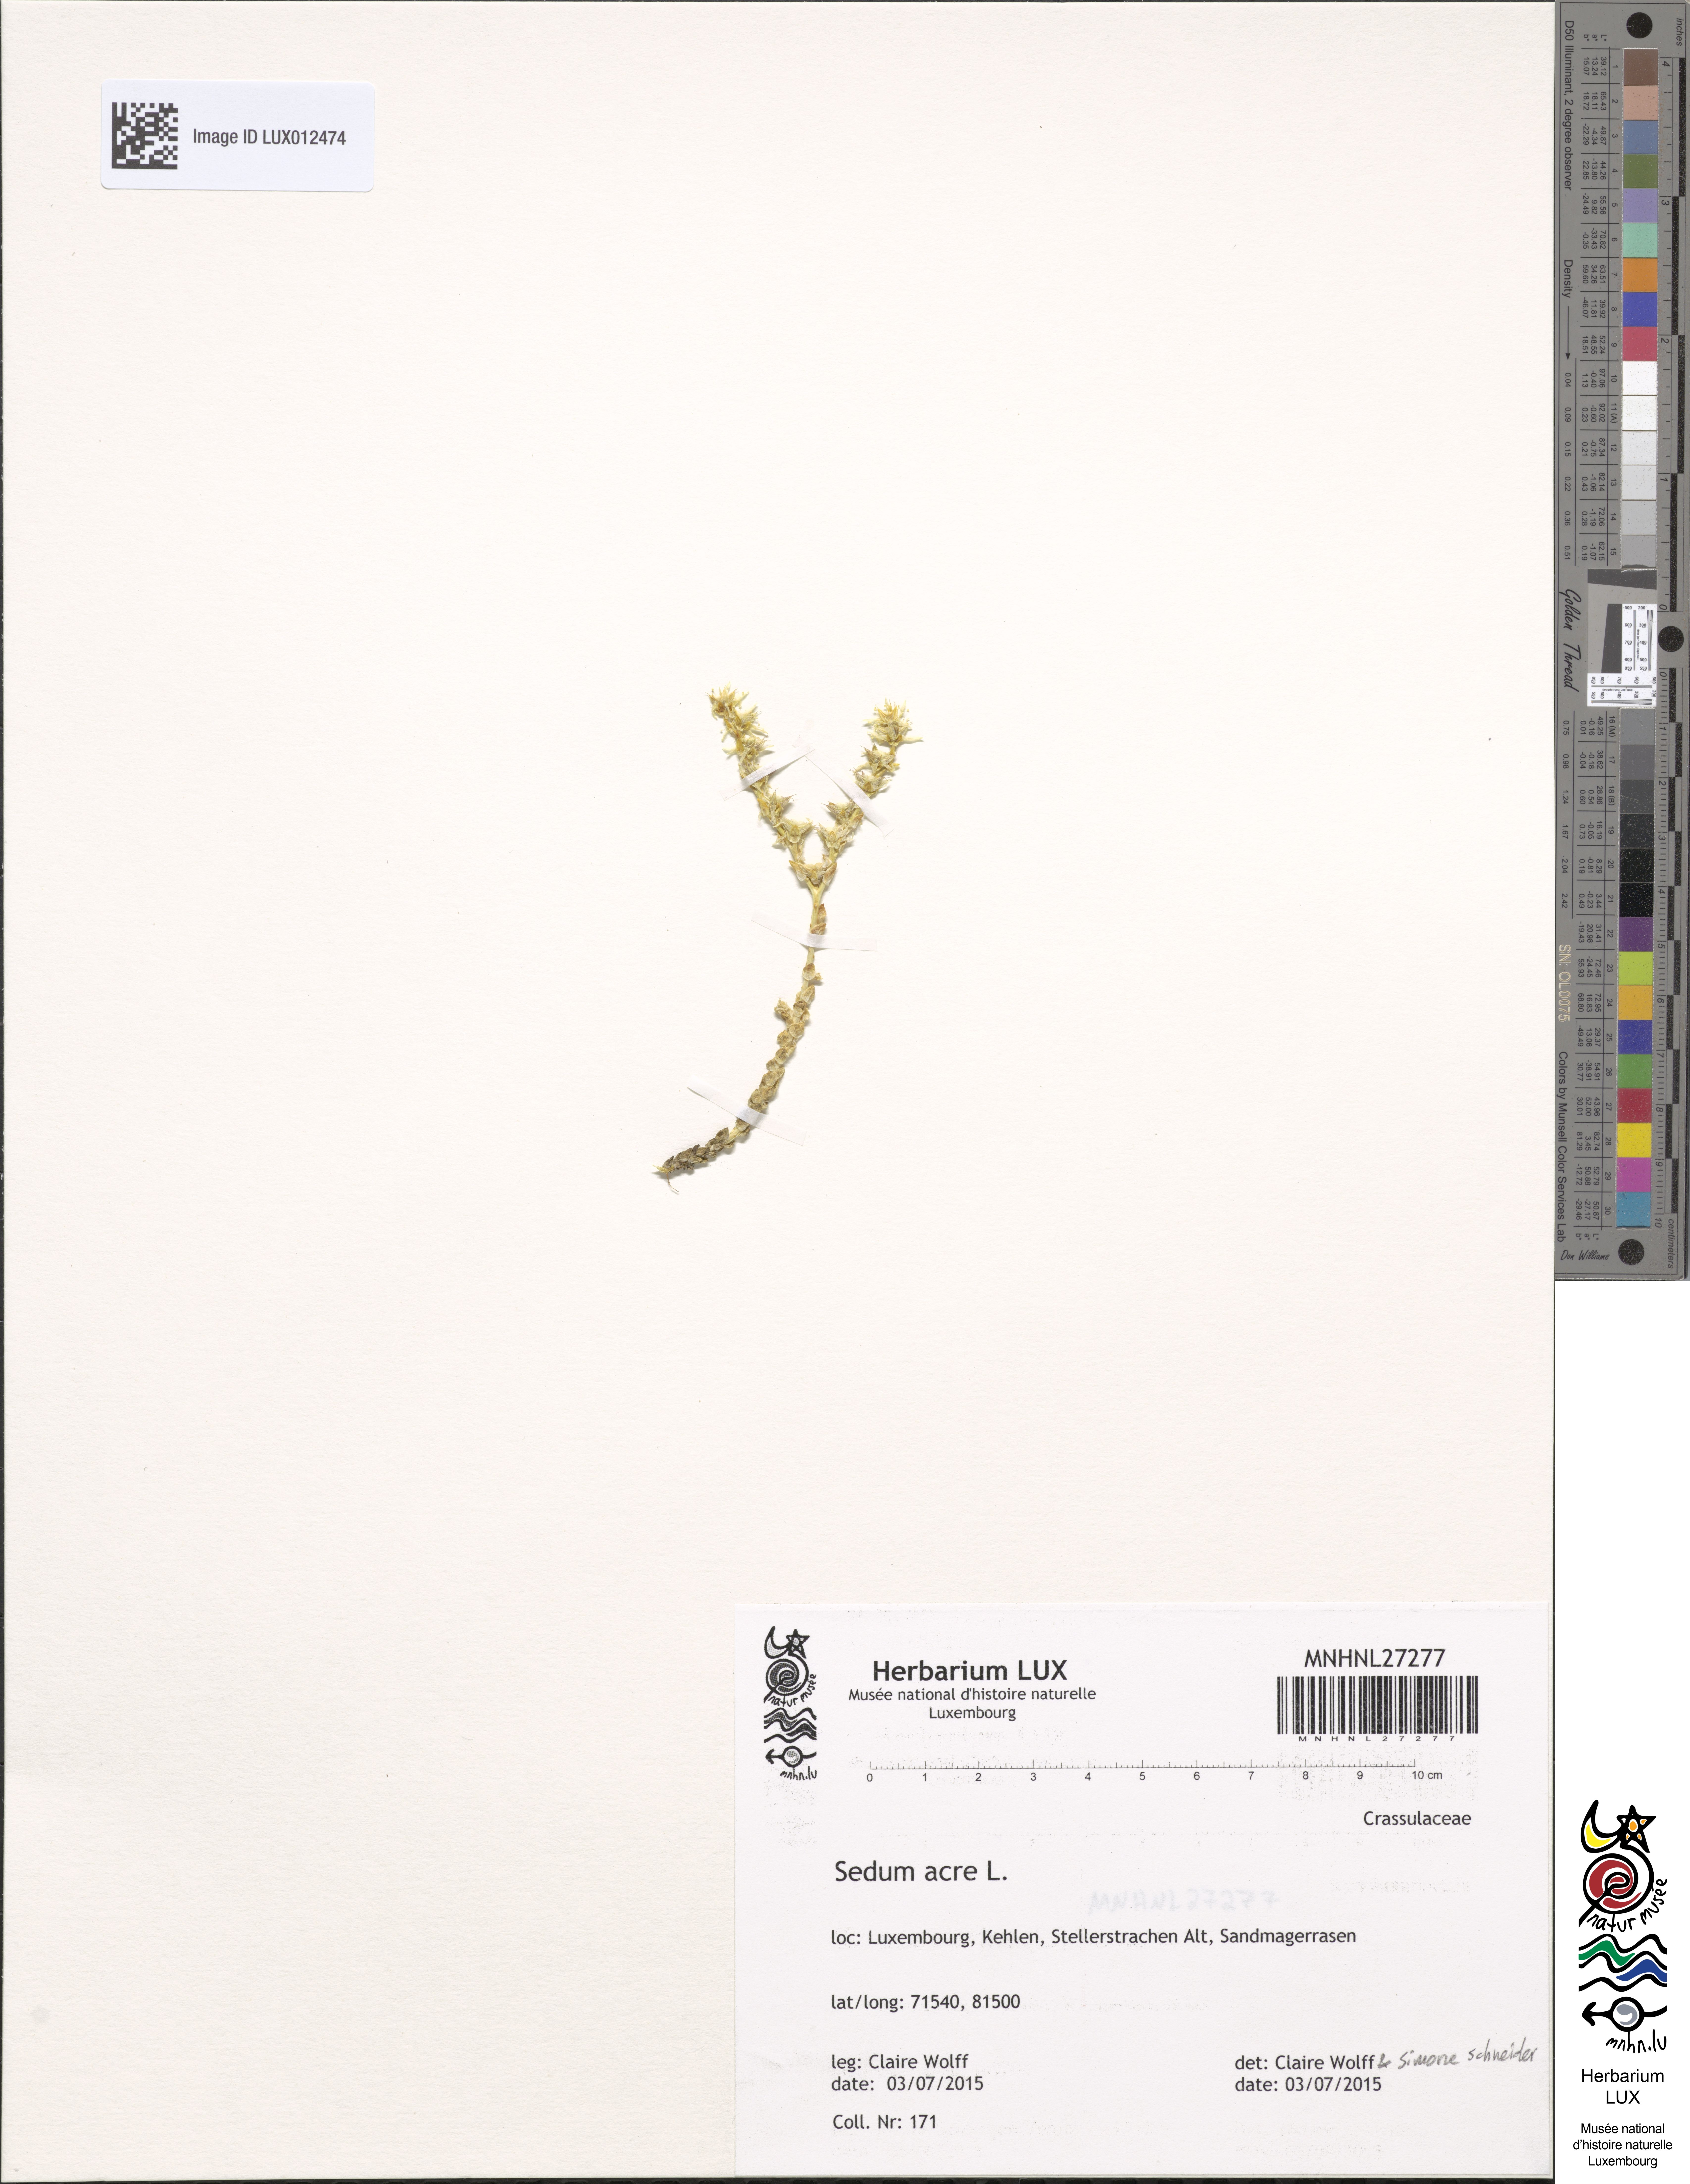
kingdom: Plantae
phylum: Tracheophyta
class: Magnoliopsida
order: Saxifragales
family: Crassulaceae
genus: Sedum
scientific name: Sedum acre
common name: Biting stonecrop
